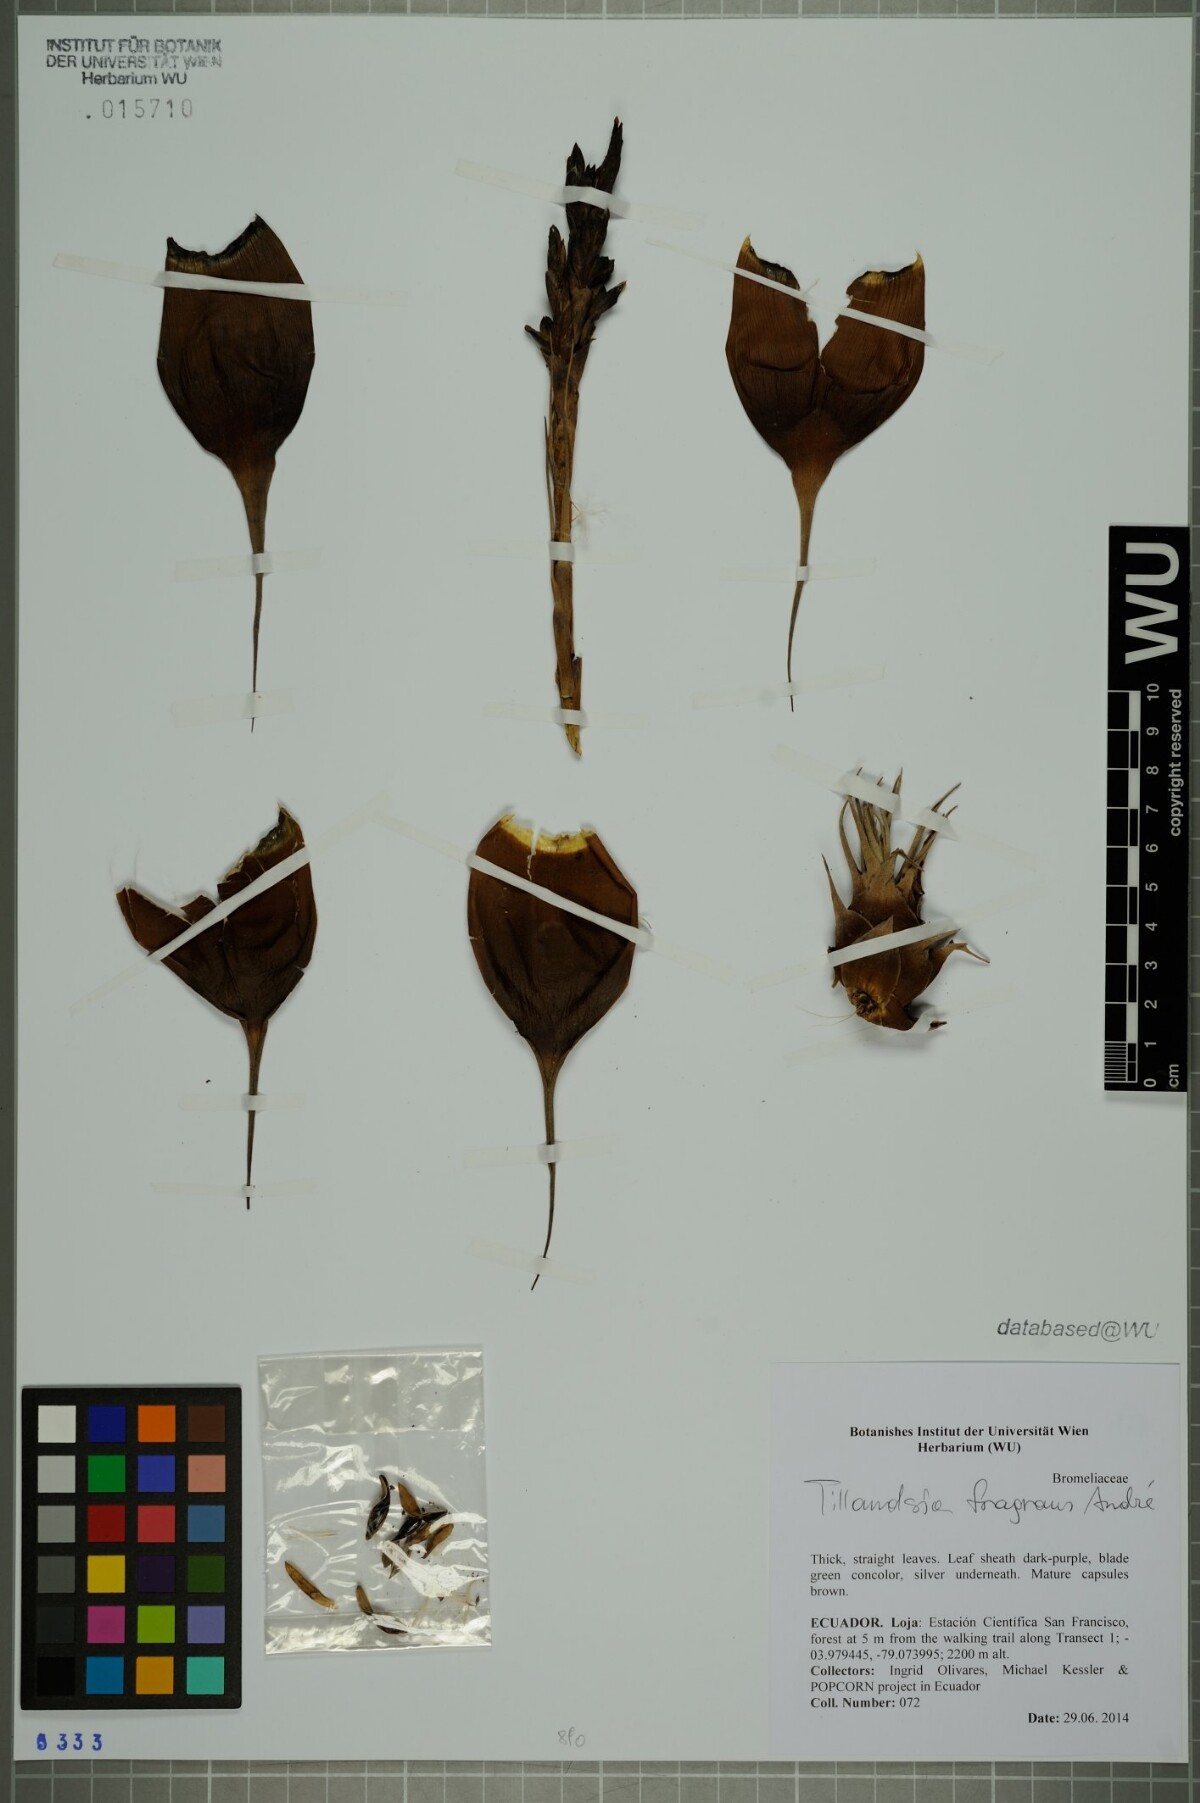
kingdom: Plantae
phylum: Tracheophyta
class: Liliopsida
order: Poales
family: Bromeliaceae
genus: Tillandsia
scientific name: Tillandsia fragrans
